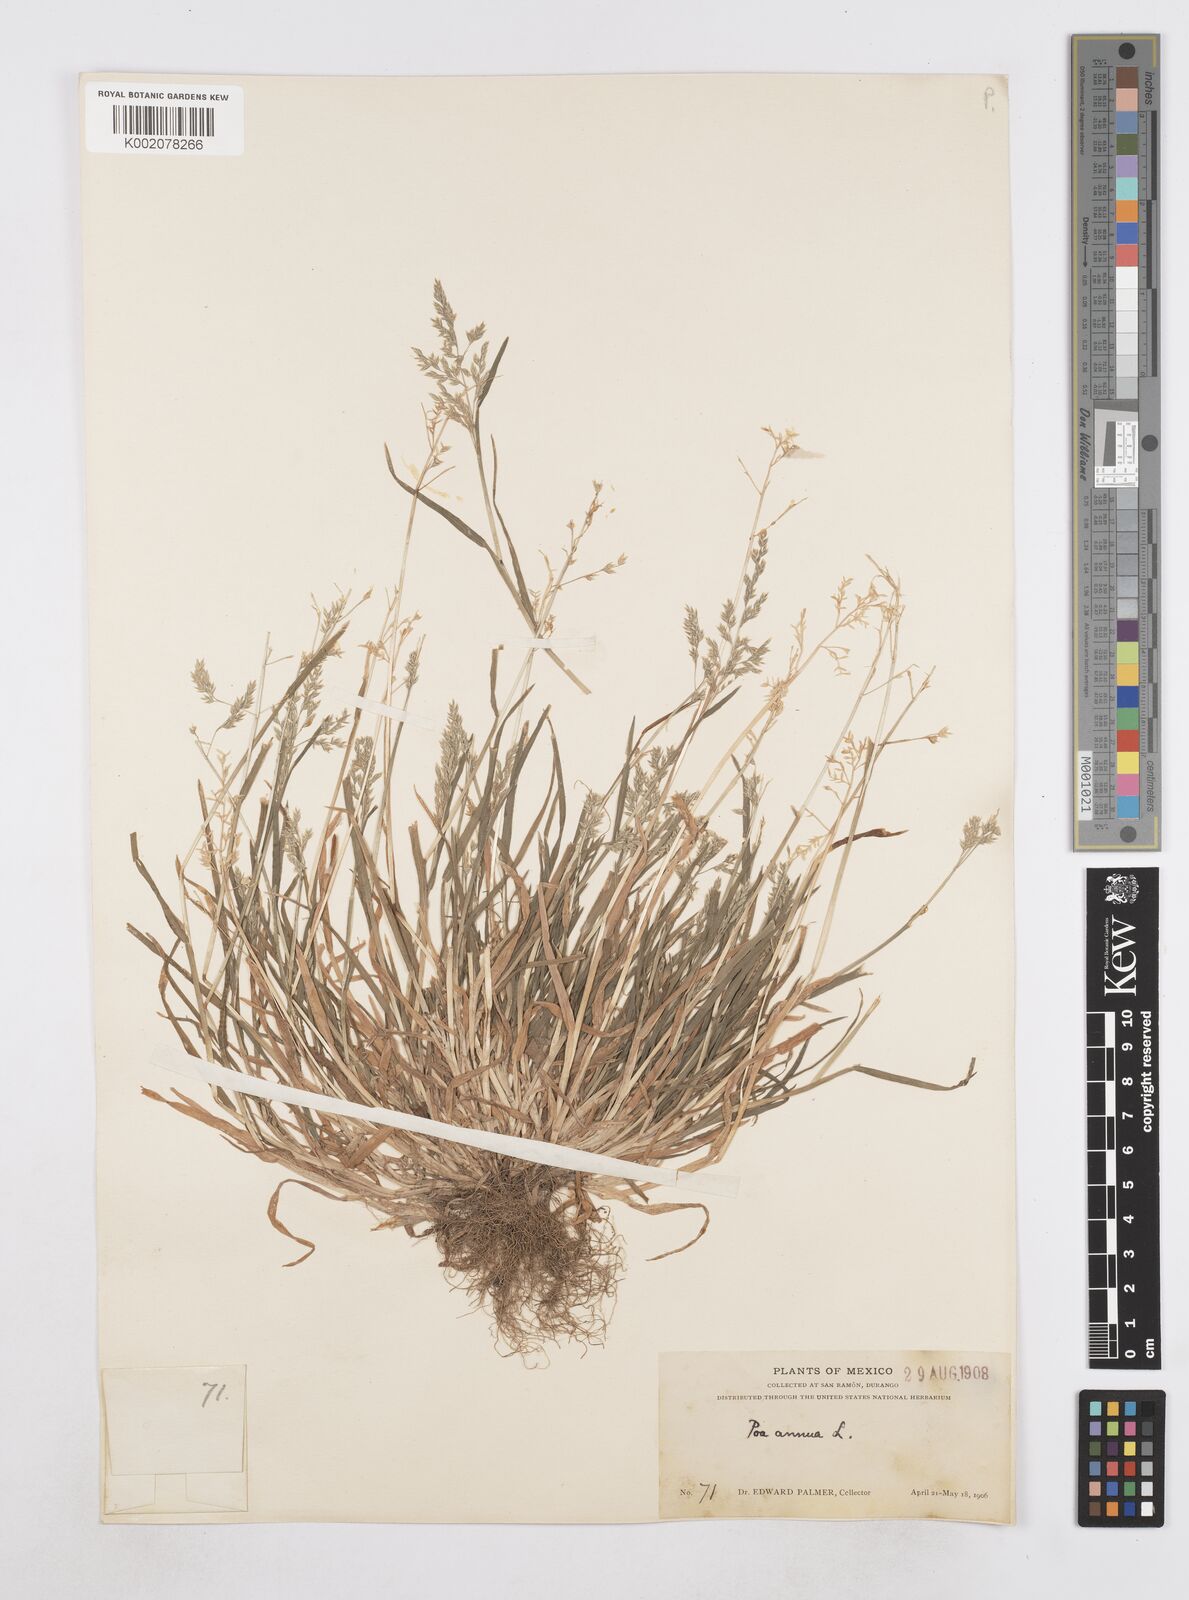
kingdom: Plantae
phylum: Tracheophyta
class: Liliopsida
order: Poales
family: Poaceae
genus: Poa
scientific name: Poa annua
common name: Annual bluegrass
